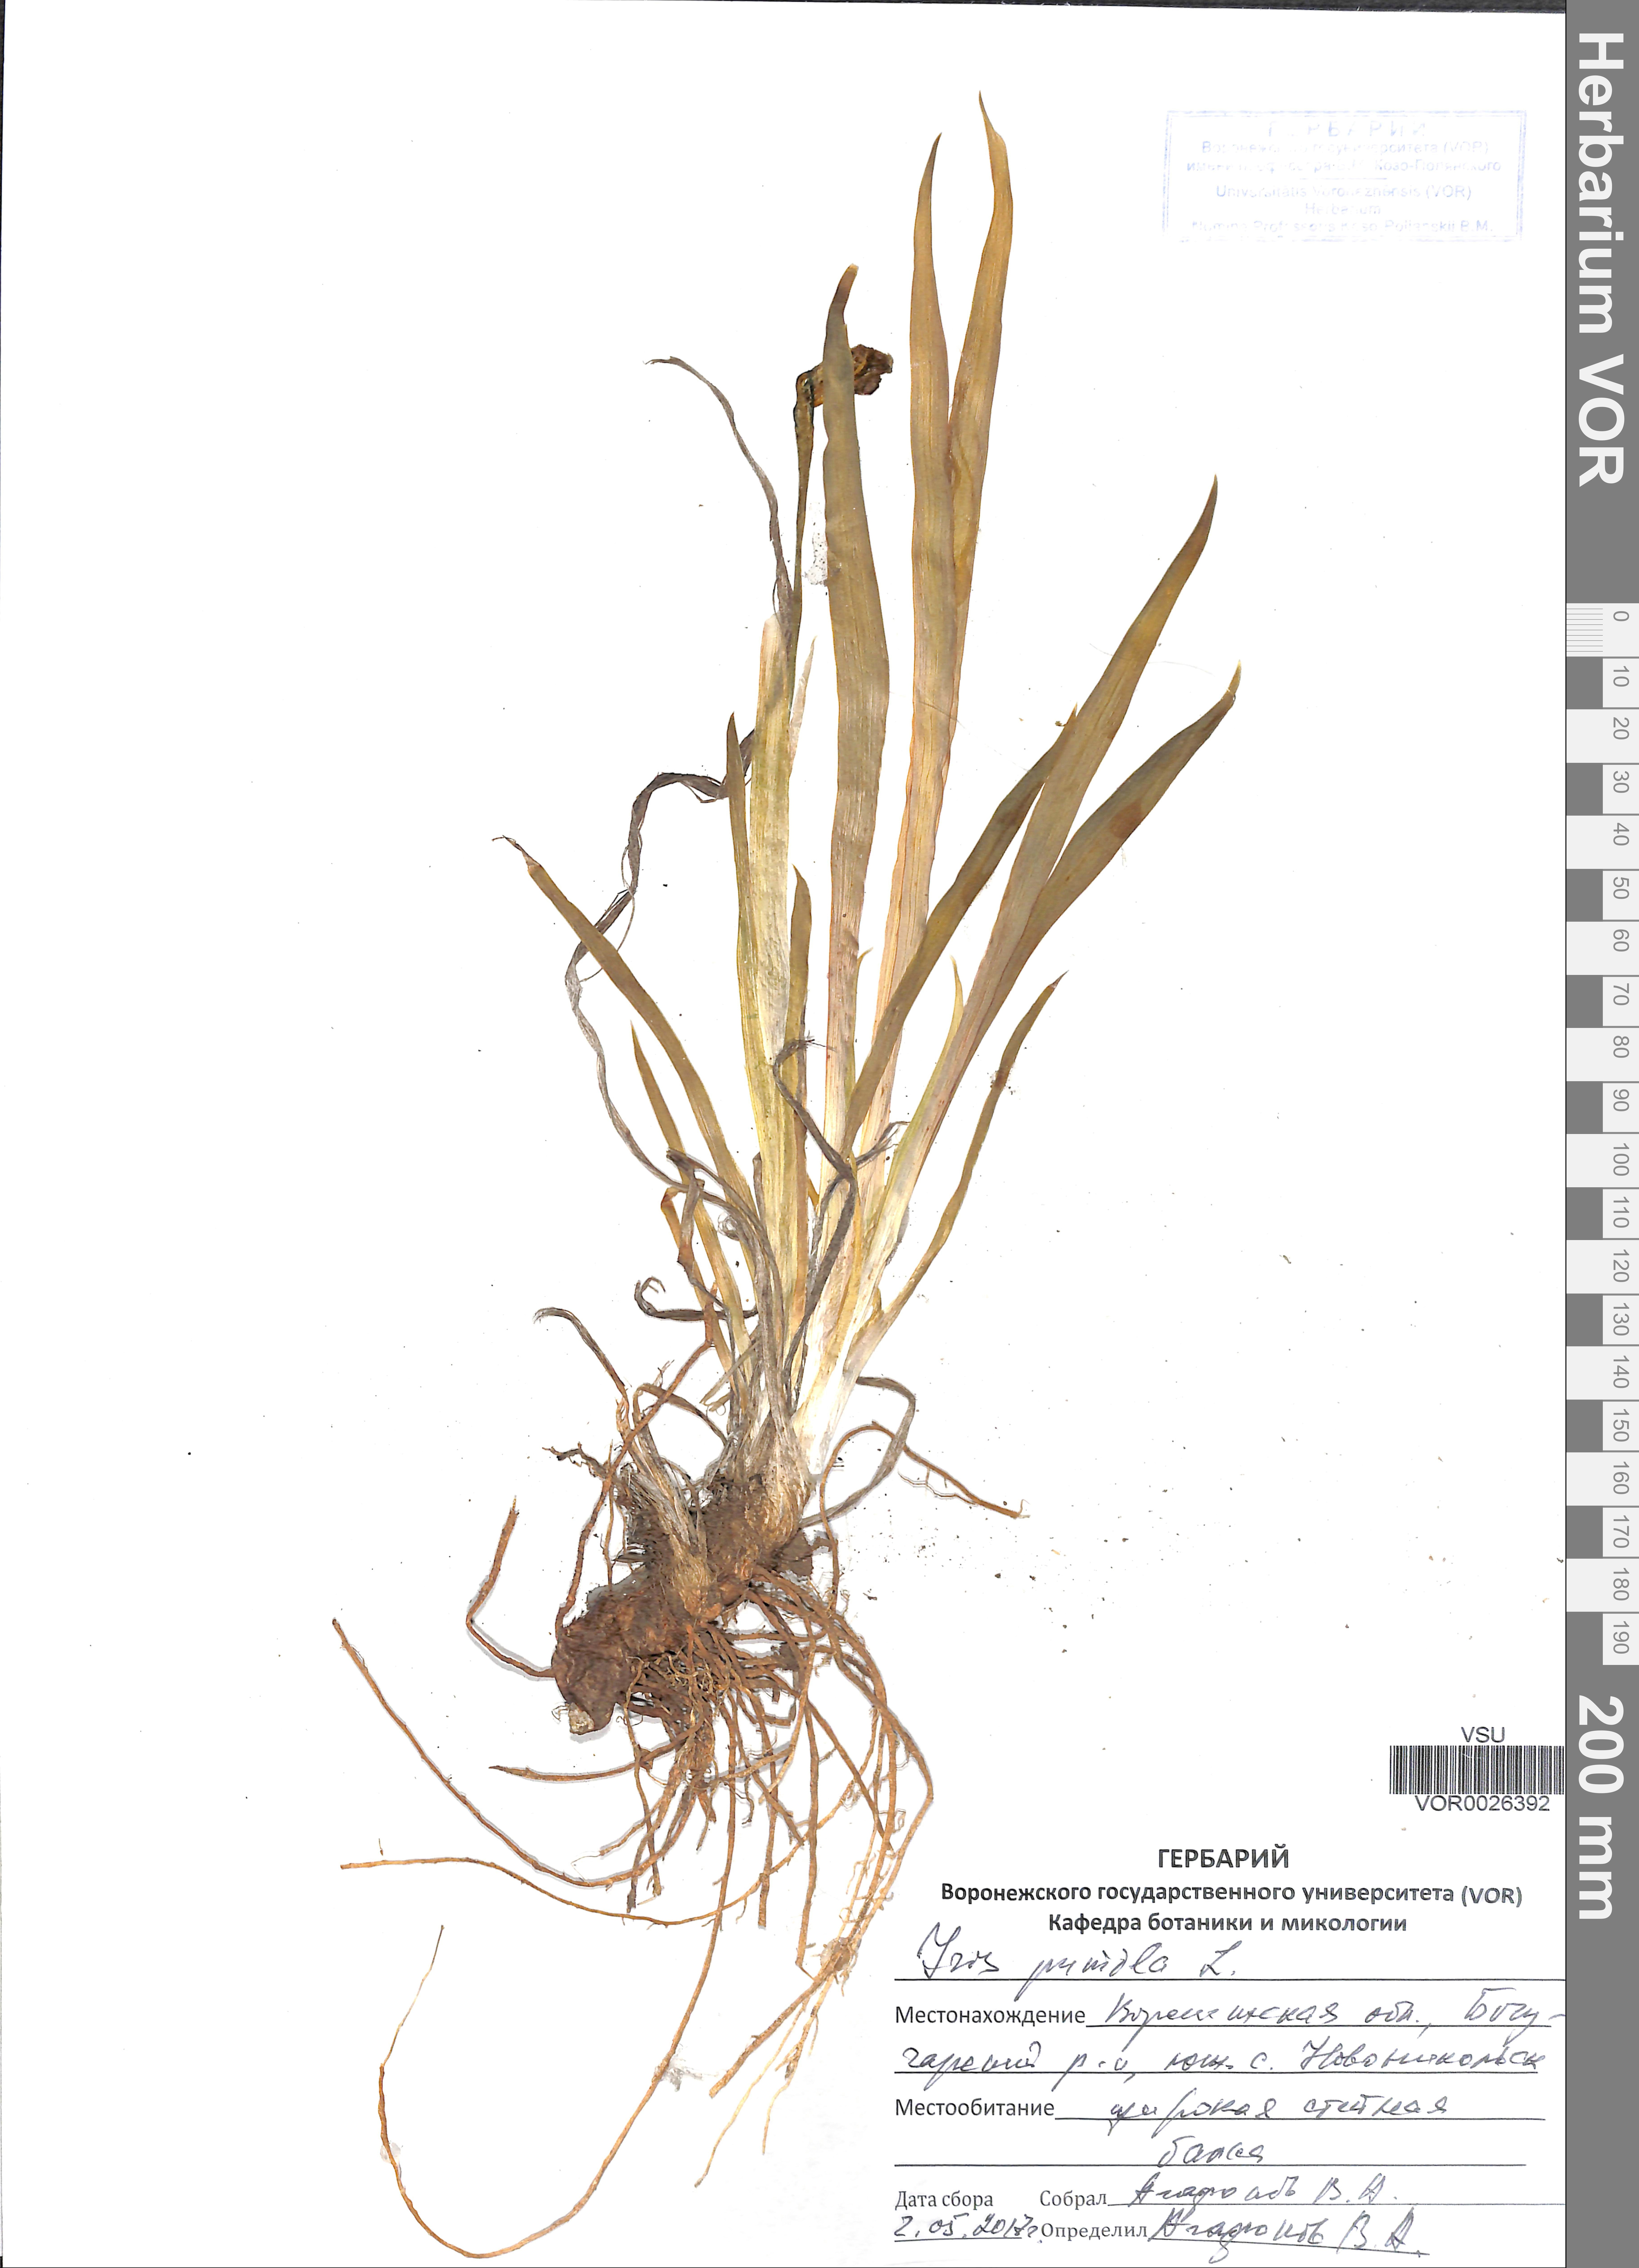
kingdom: Plantae
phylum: Tracheophyta
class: Liliopsida
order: Asparagales
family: Iridaceae
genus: Iris
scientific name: Iris pumila
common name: Dwarf iris
